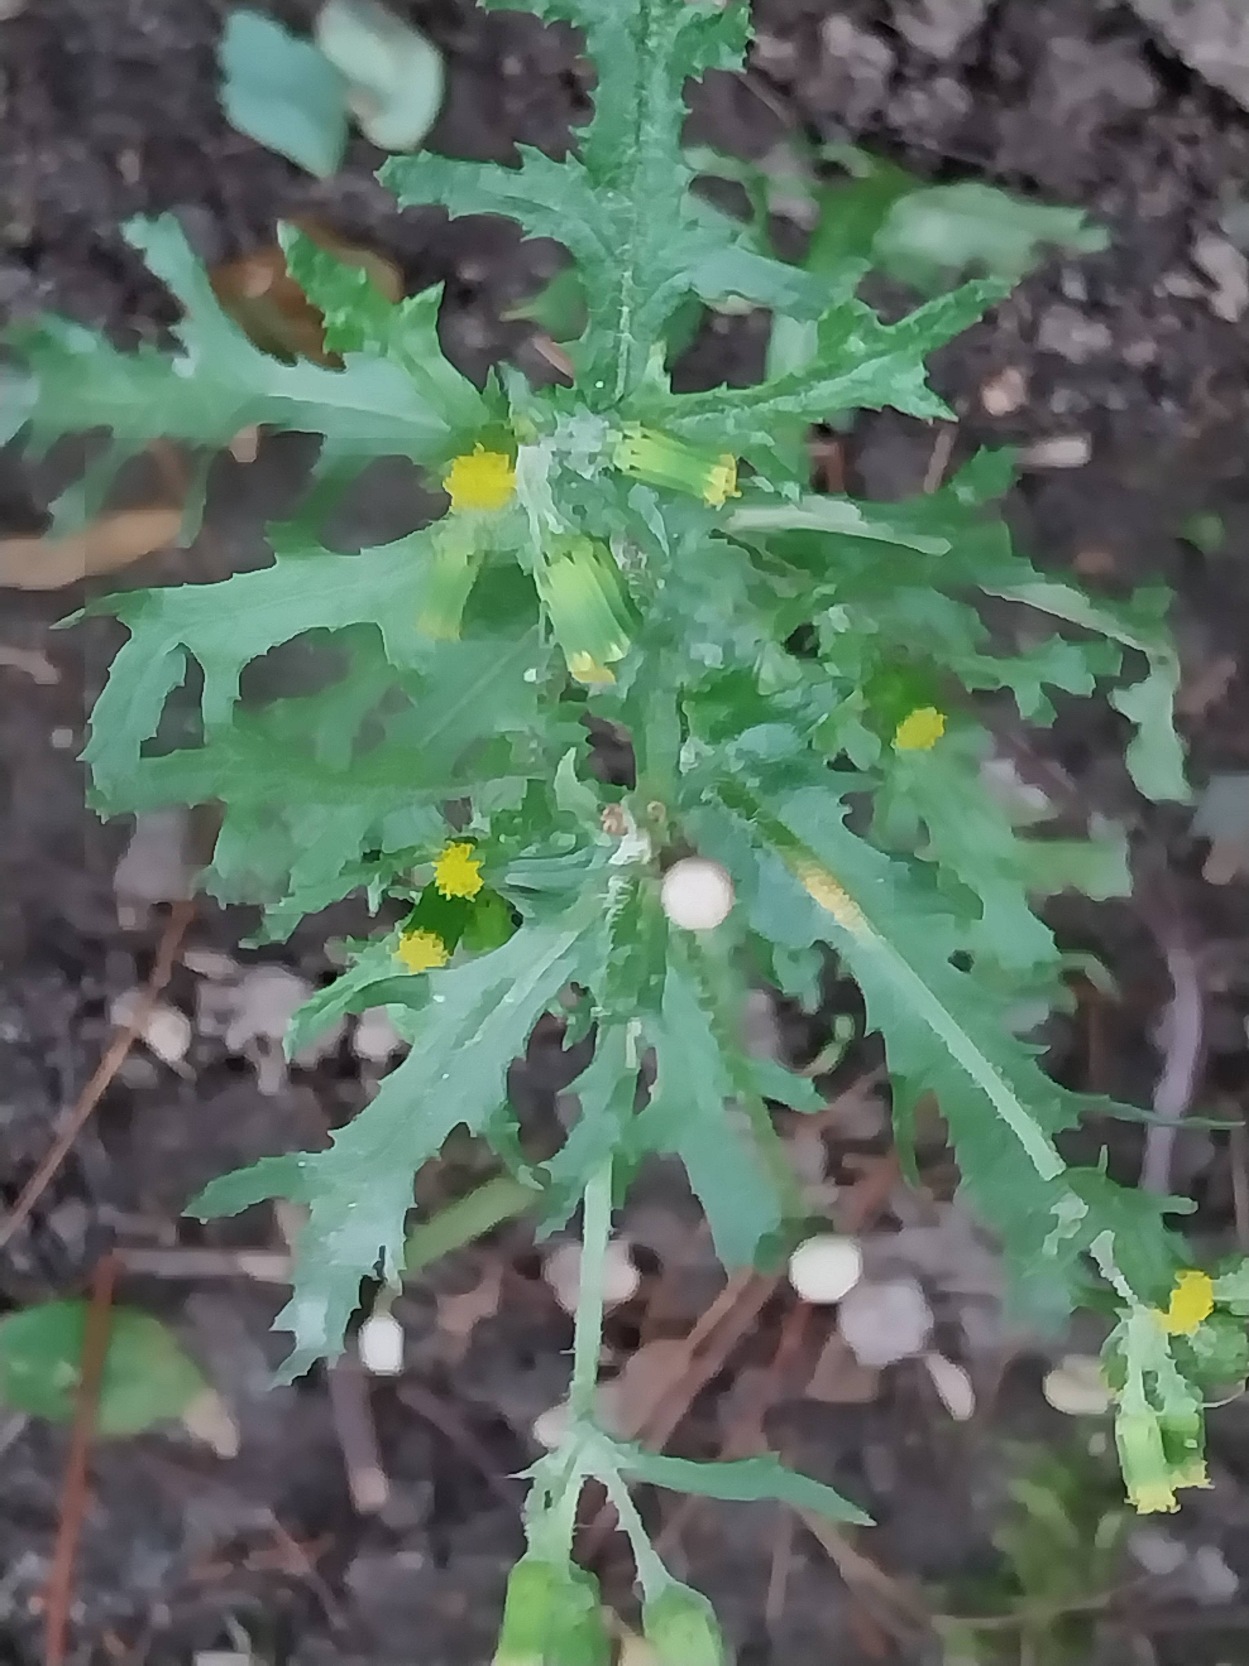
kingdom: Plantae
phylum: Tracheophyta
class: Magnoliopsida
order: Asterales
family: Asteraceae
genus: Senecio
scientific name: Senecio vulgaris
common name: Almindelig brandbæger
